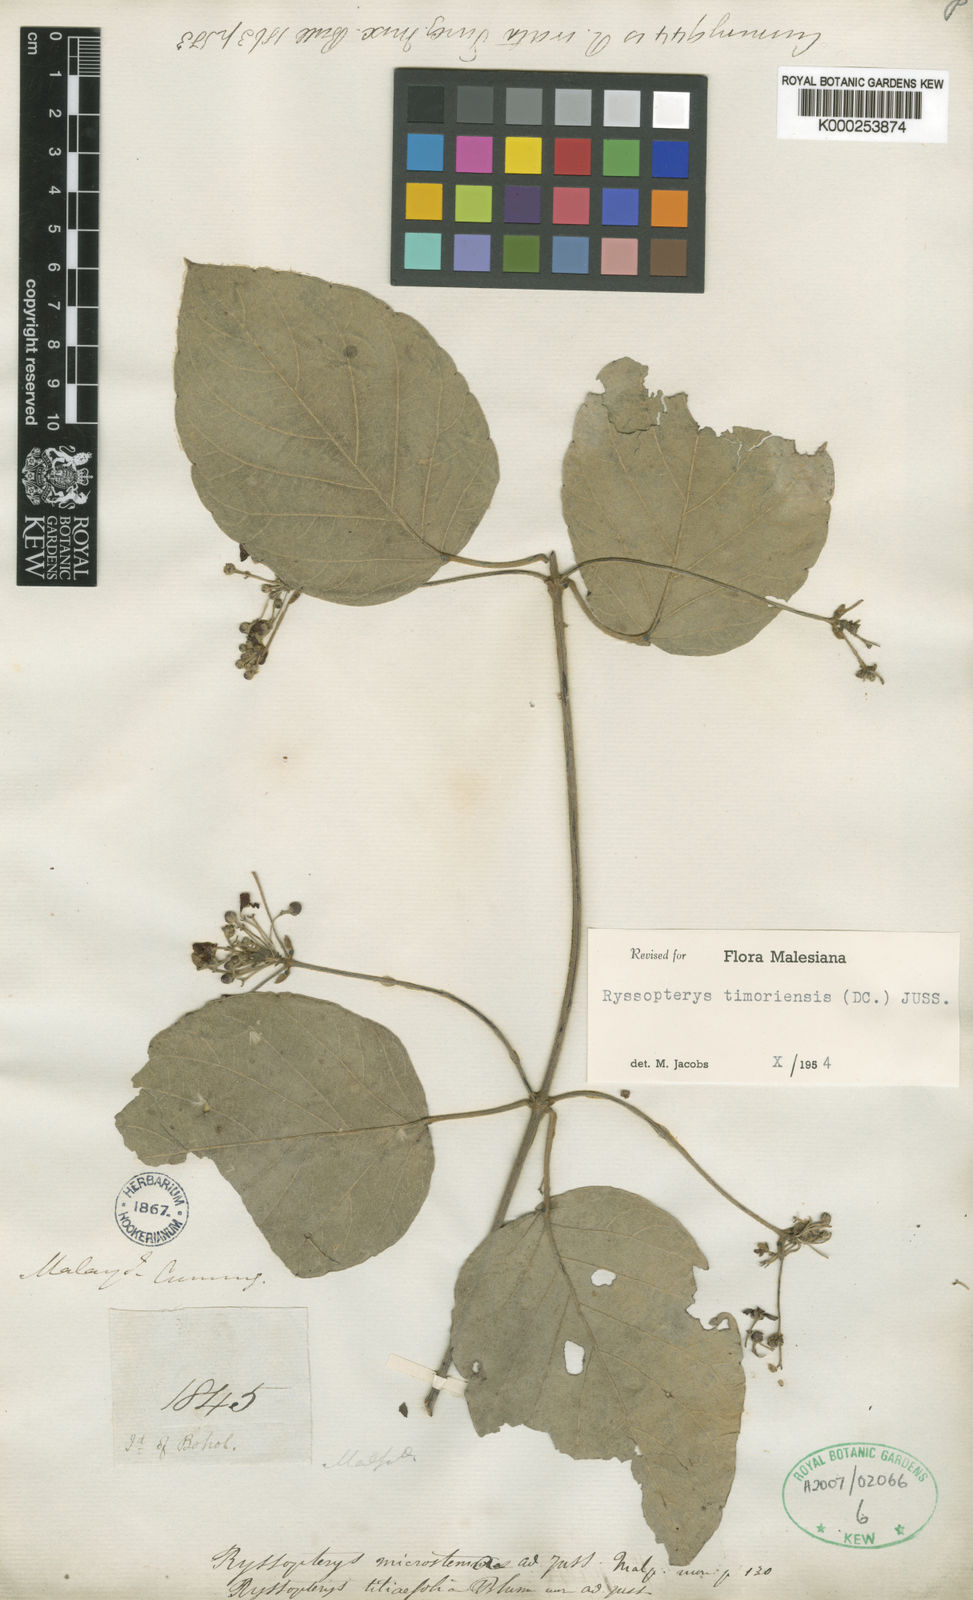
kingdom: Plantae
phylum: Tracheophyta
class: Magnoliopsida
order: Malpighiales
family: Malpighiaceae
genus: Stigmaphyllon
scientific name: Stigmaphyllon merrillii
